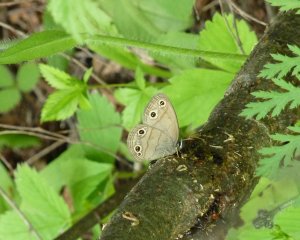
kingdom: Animalia
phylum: Arthropoda
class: Insecta
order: Lepidoptera
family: Nymphalidae
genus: Euptychia
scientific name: Euptychia cymela
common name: Little Wood Satyr
